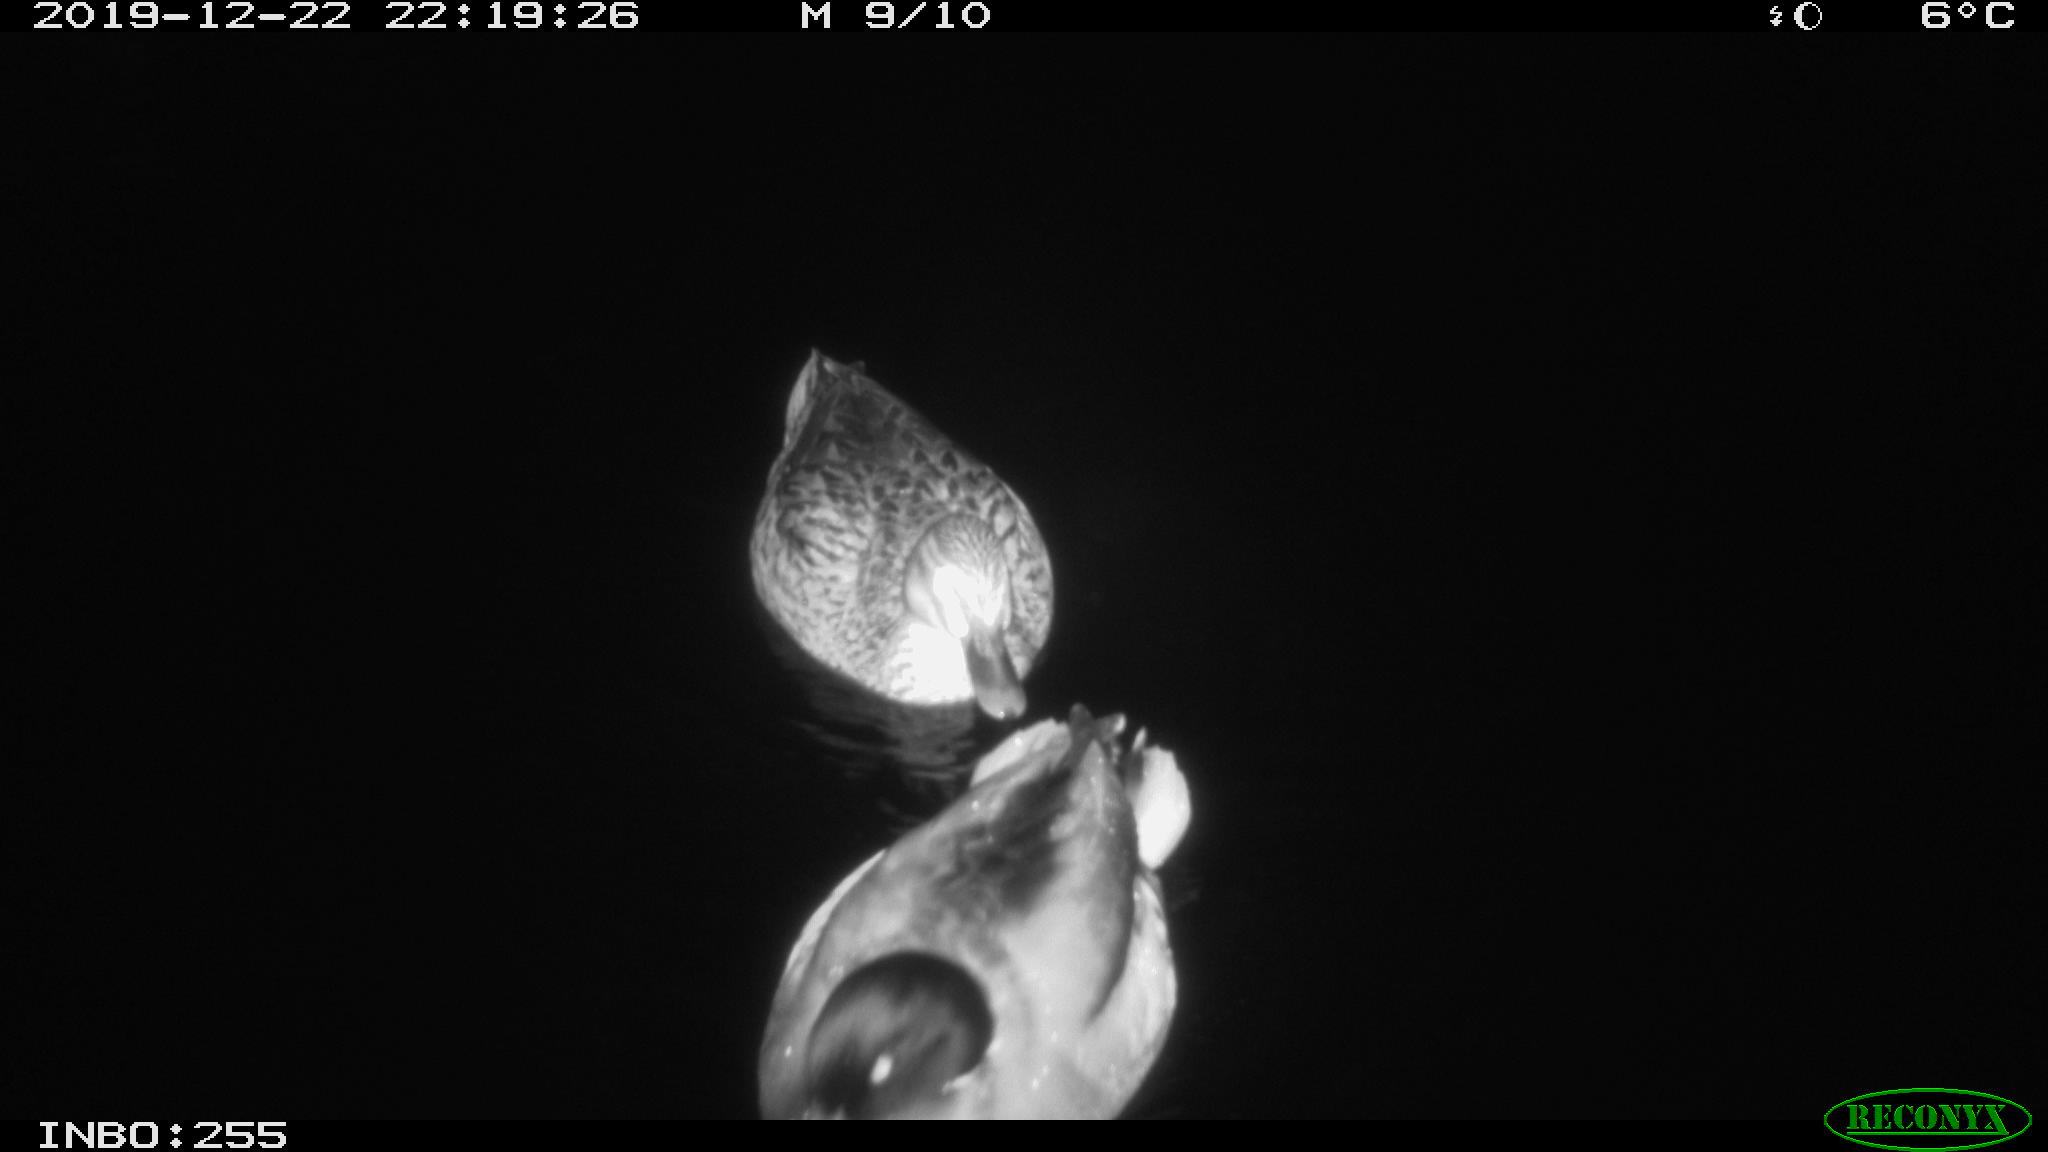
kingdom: Animalia
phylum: Chordata
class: Aves
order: Anseriformes
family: Anatidae
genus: Anas
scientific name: Anas platyrhynchos
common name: Mallard
